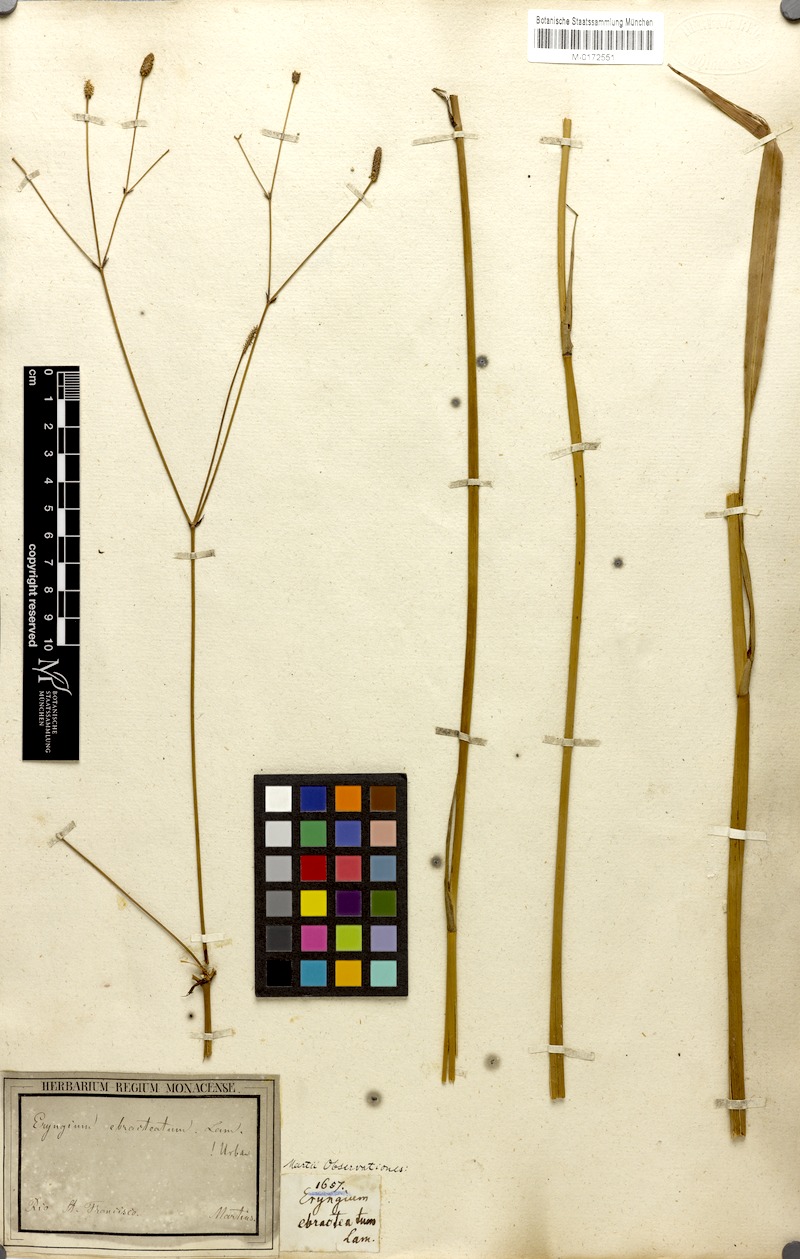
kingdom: Plantae
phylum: Tracheophyta
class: Magnoliopsida
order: Apiales
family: Apiaceae
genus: Eryngium
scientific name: Eryngium ebracteatum
